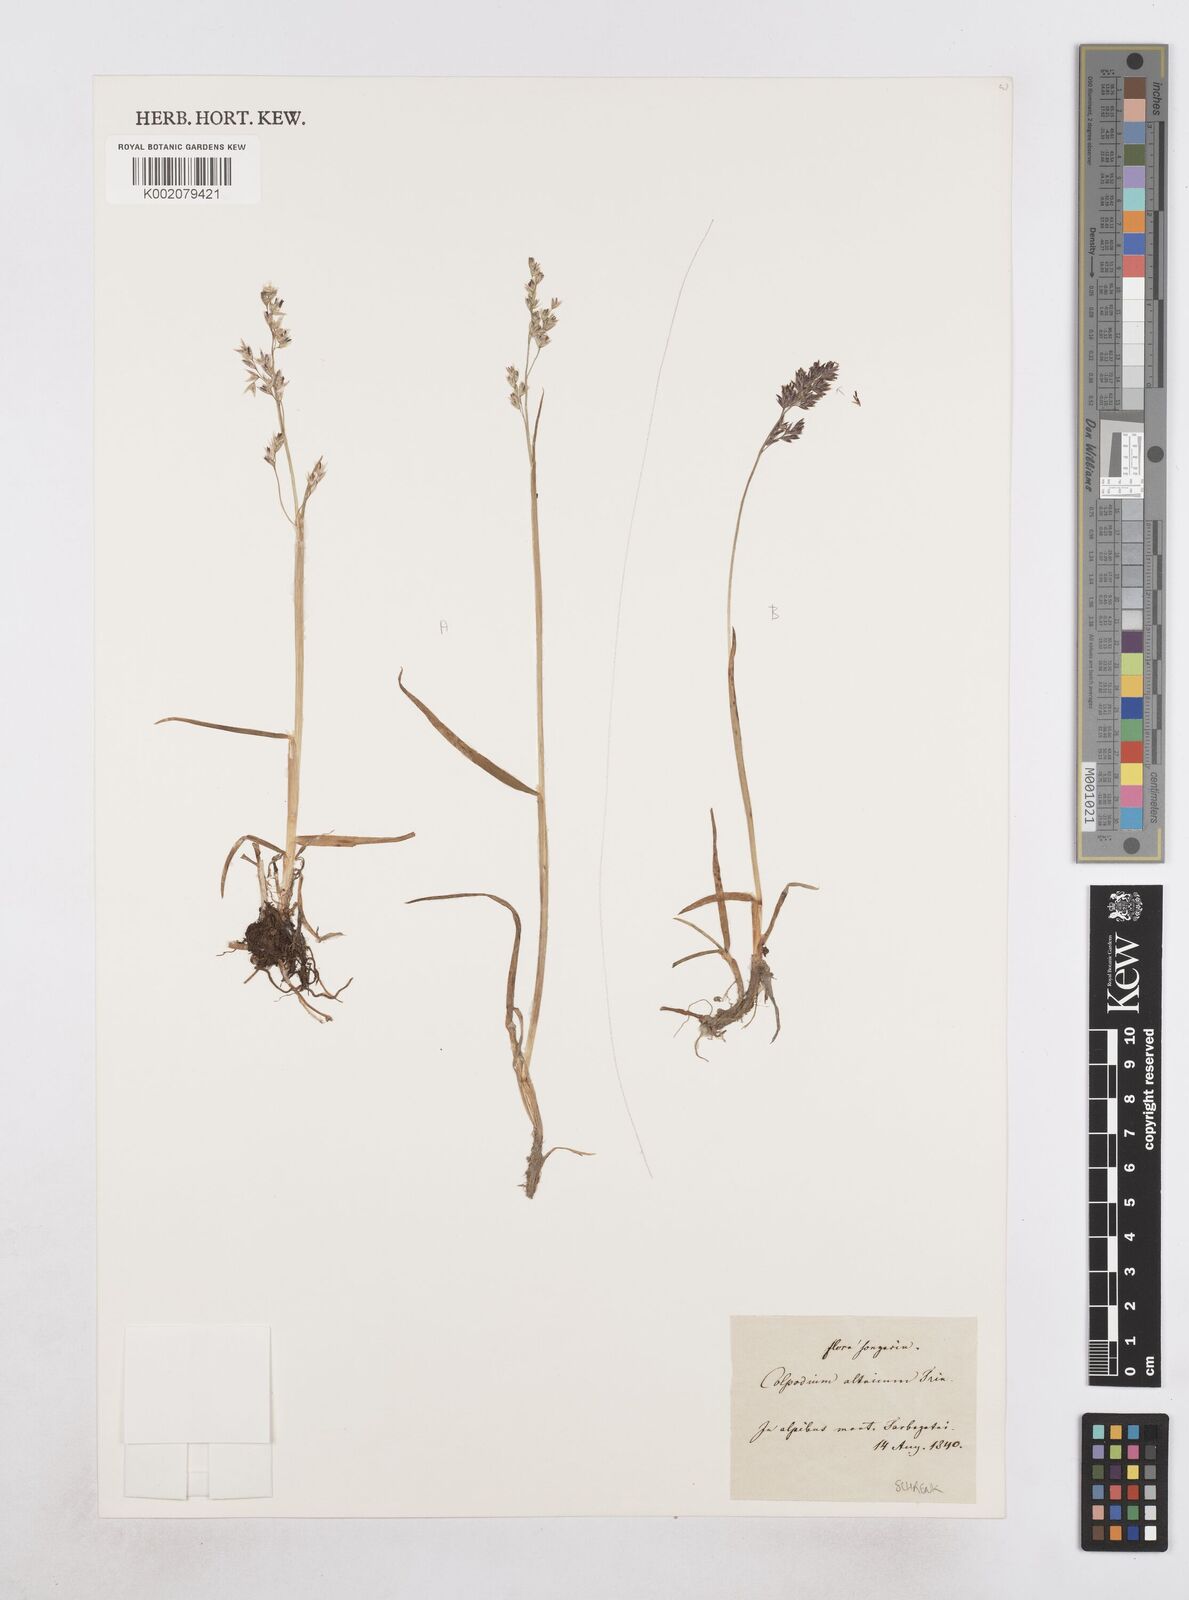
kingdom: Plantae
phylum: Tracheophyta
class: Liliopsida
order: Poales
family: Poaceae
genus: Paracolpodium
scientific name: Paracolpodium altaicum
